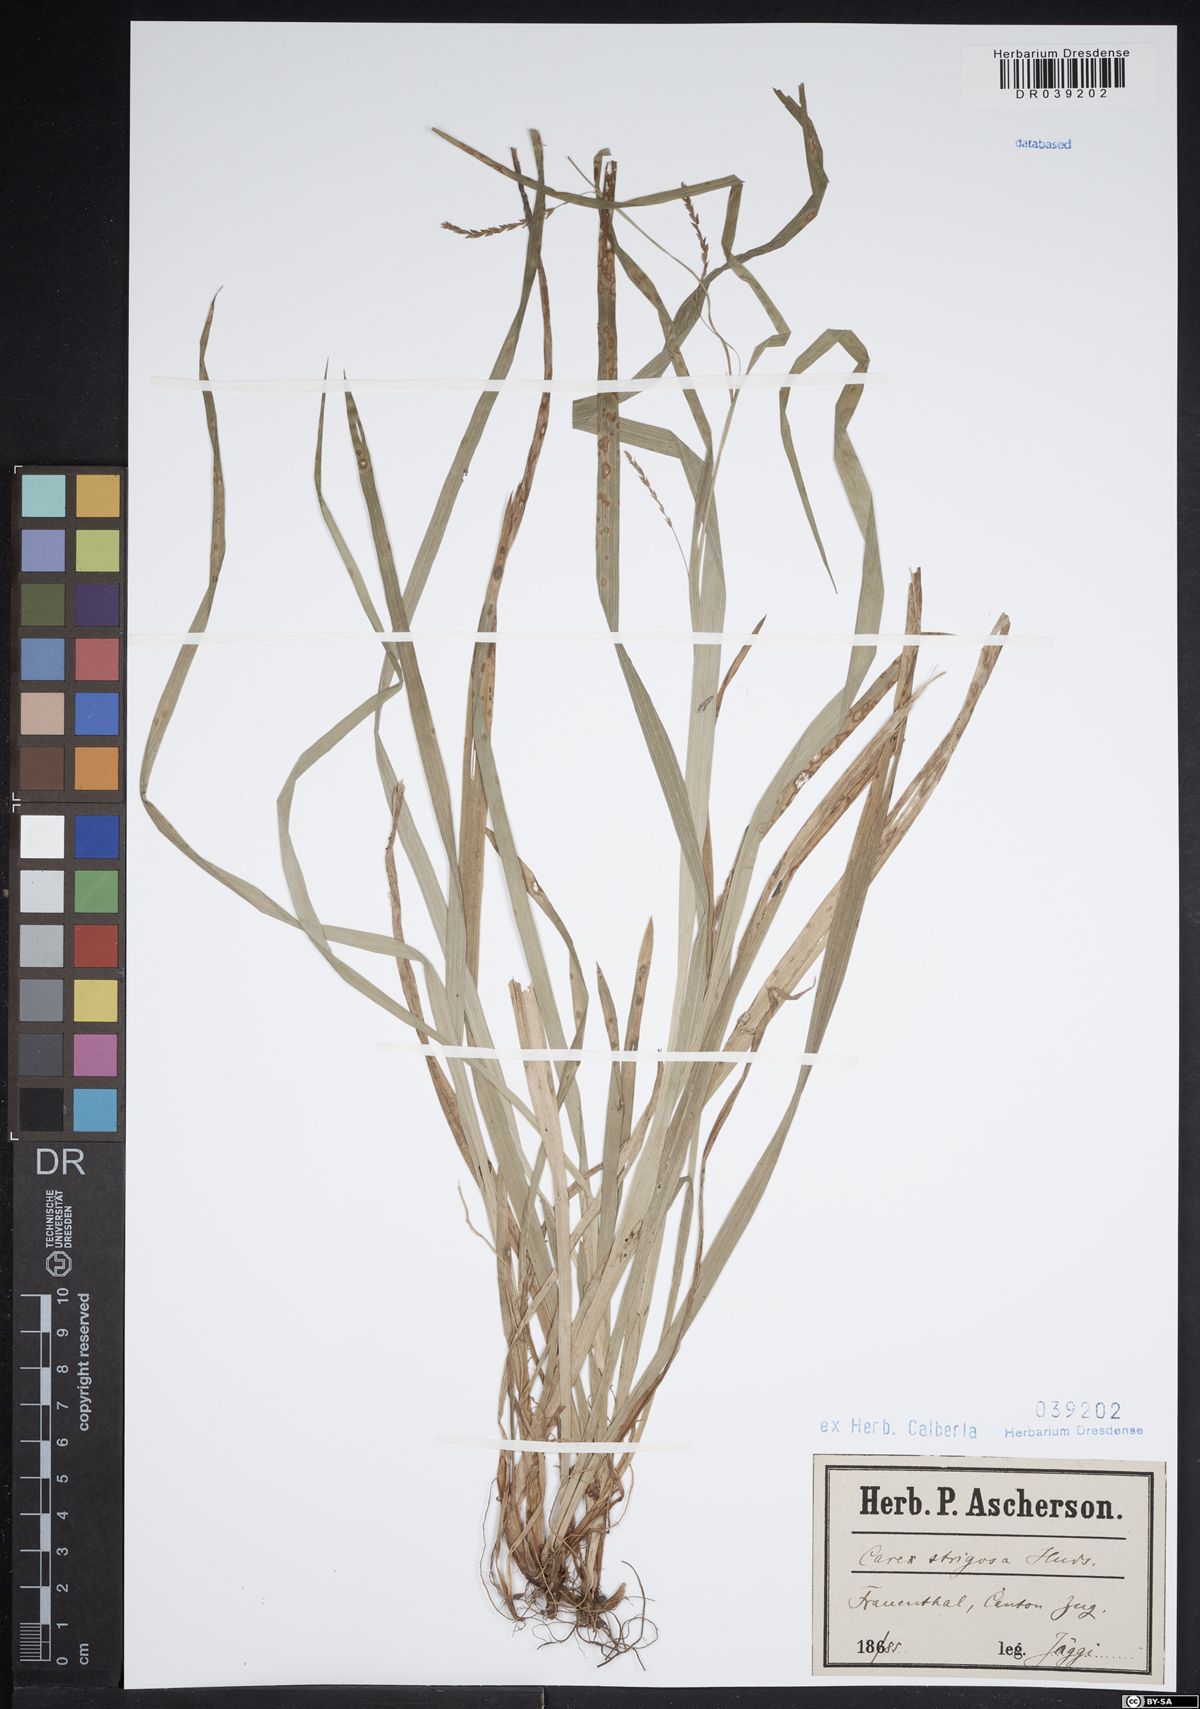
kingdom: Plantae
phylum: Tracheophyta
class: Liliopsida
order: Poales
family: Cyperaceae
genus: Carex
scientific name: Carex strigosa
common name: Thin-spiked wood-sedge
